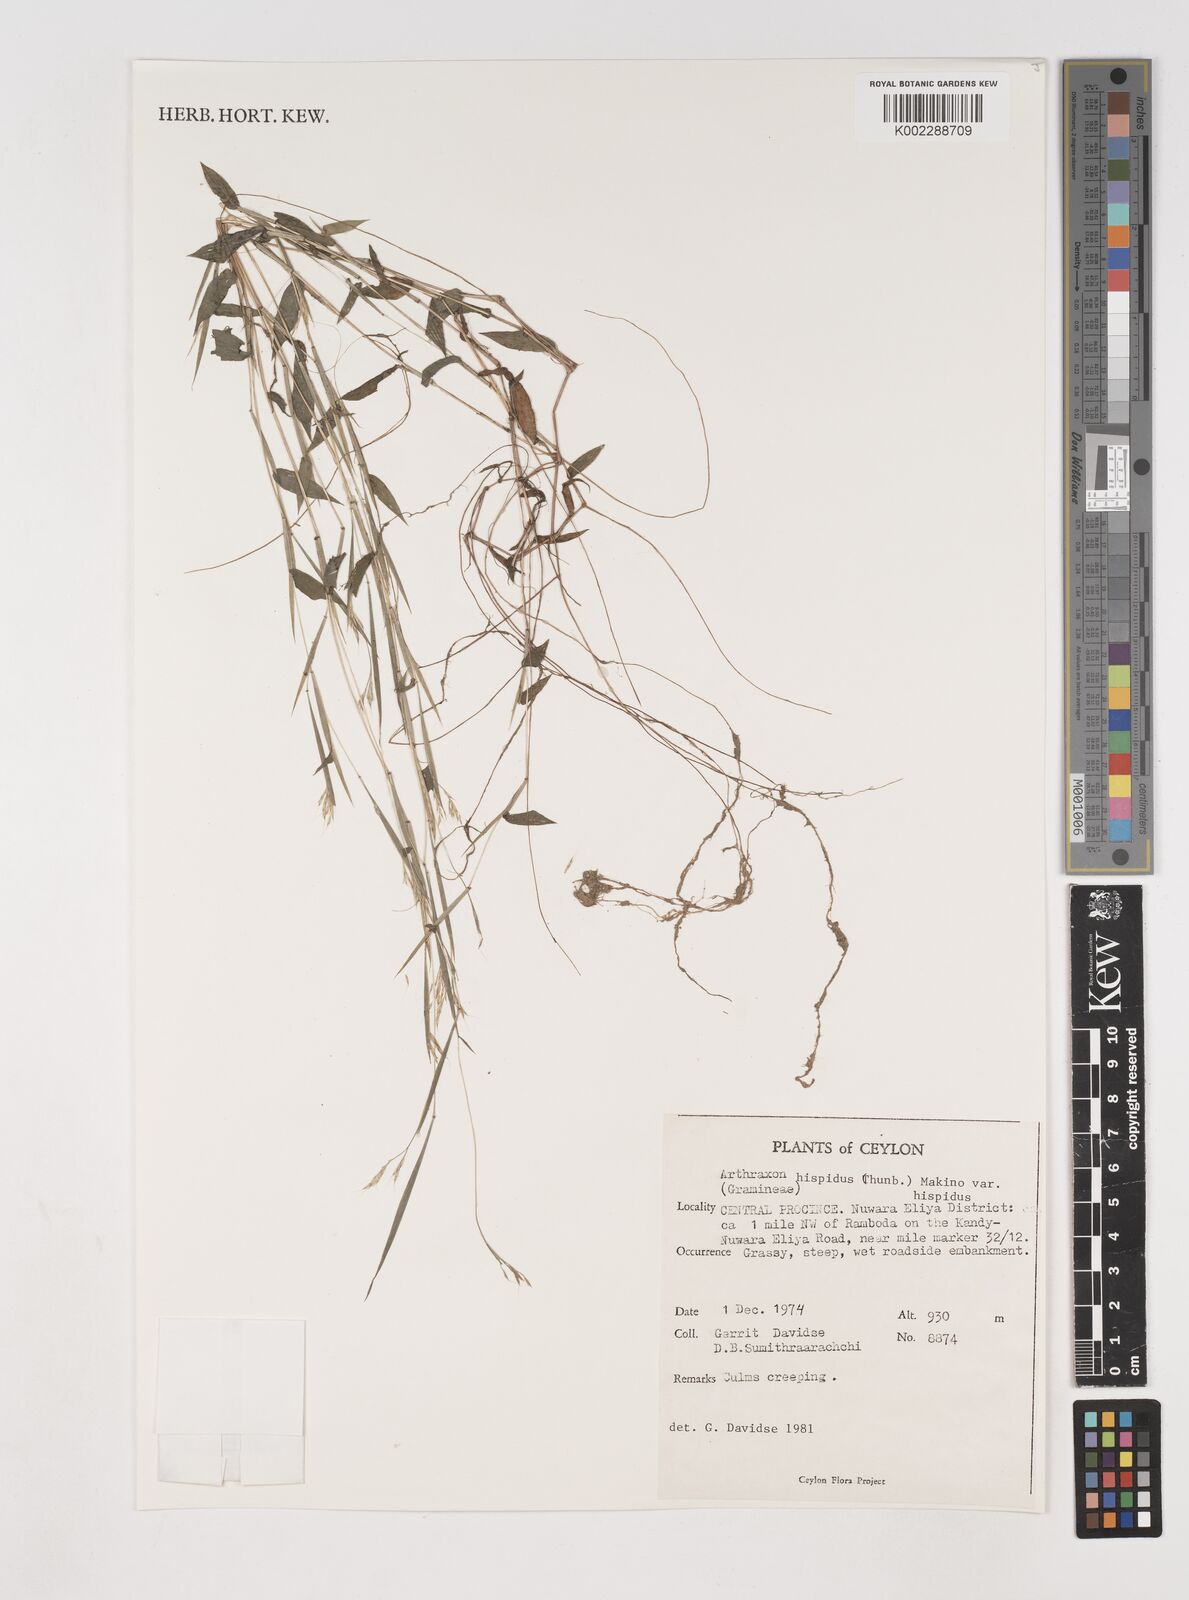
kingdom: Plantae
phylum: Tracheophyta
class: Liliopsida
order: Poales
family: Poaceae
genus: Arthraxon
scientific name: Arthraxon hispidus
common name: Small carpgrass
